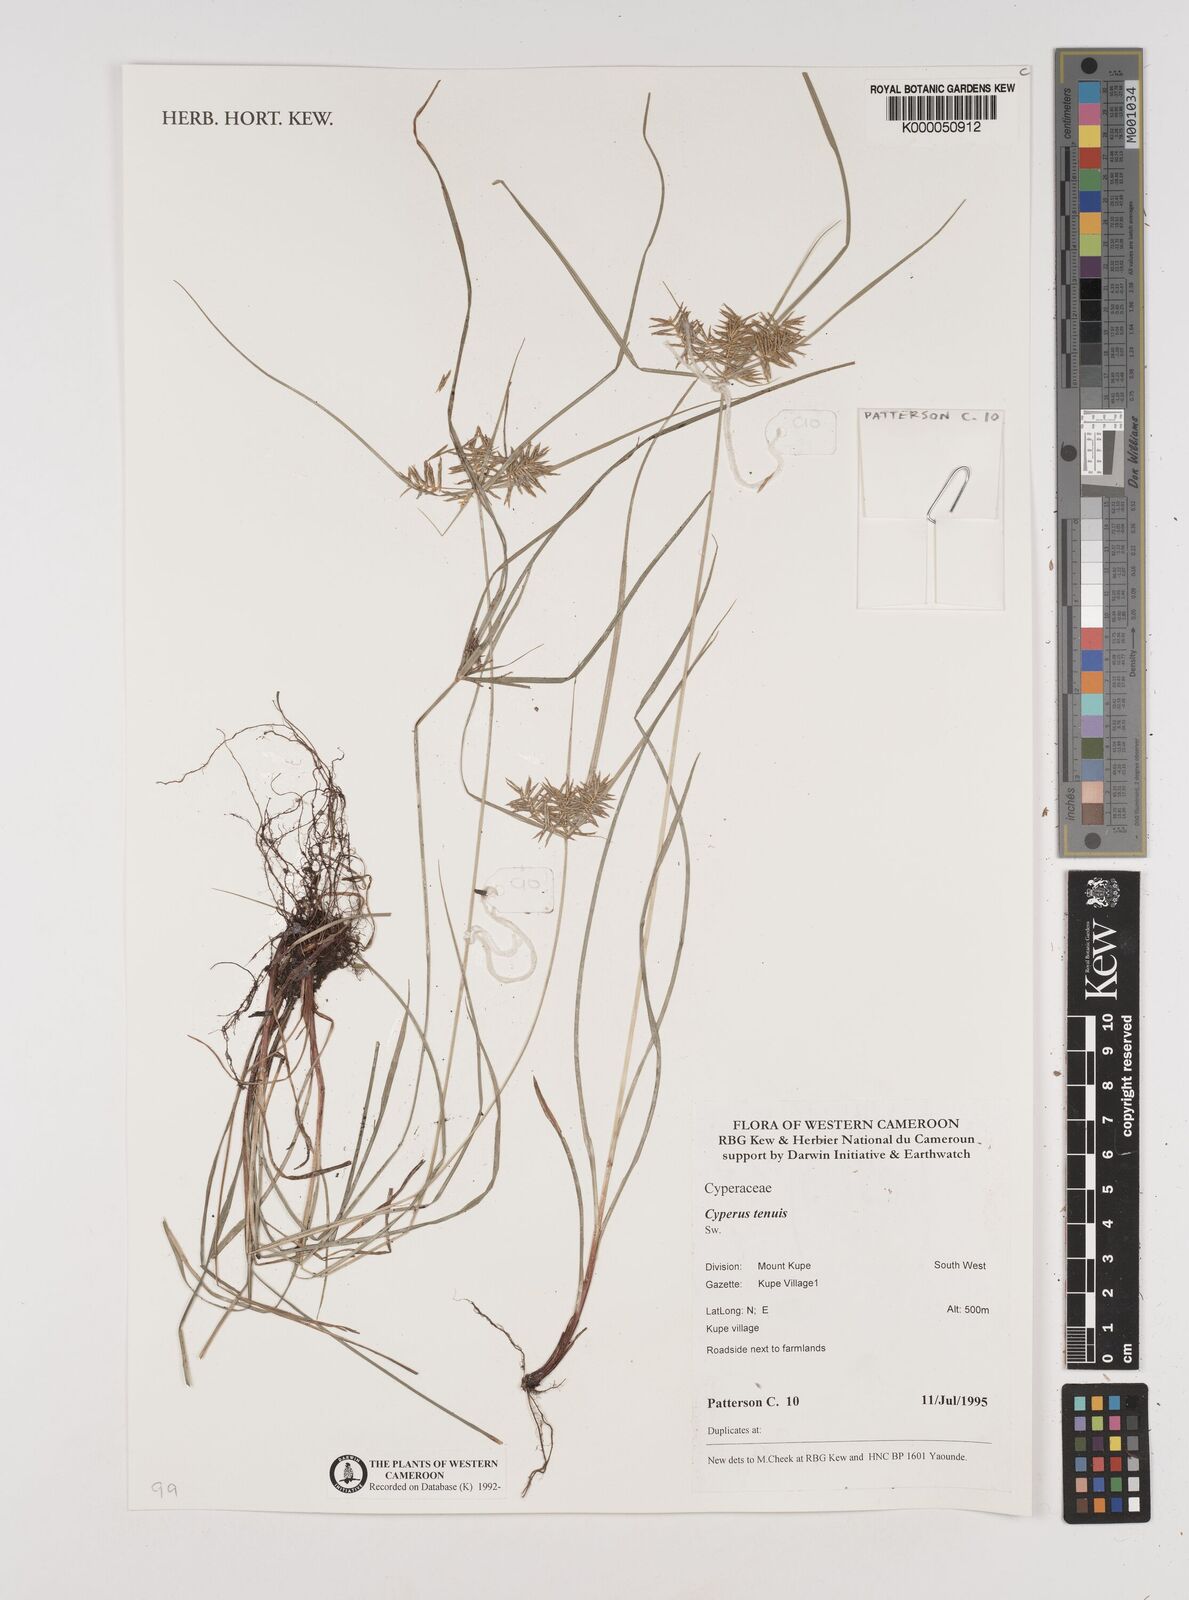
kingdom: Plantae
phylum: Tracheophyta
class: Liliopsida
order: Poales
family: Cyperaceae
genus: Cyperus
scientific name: Cyperus tenuis
